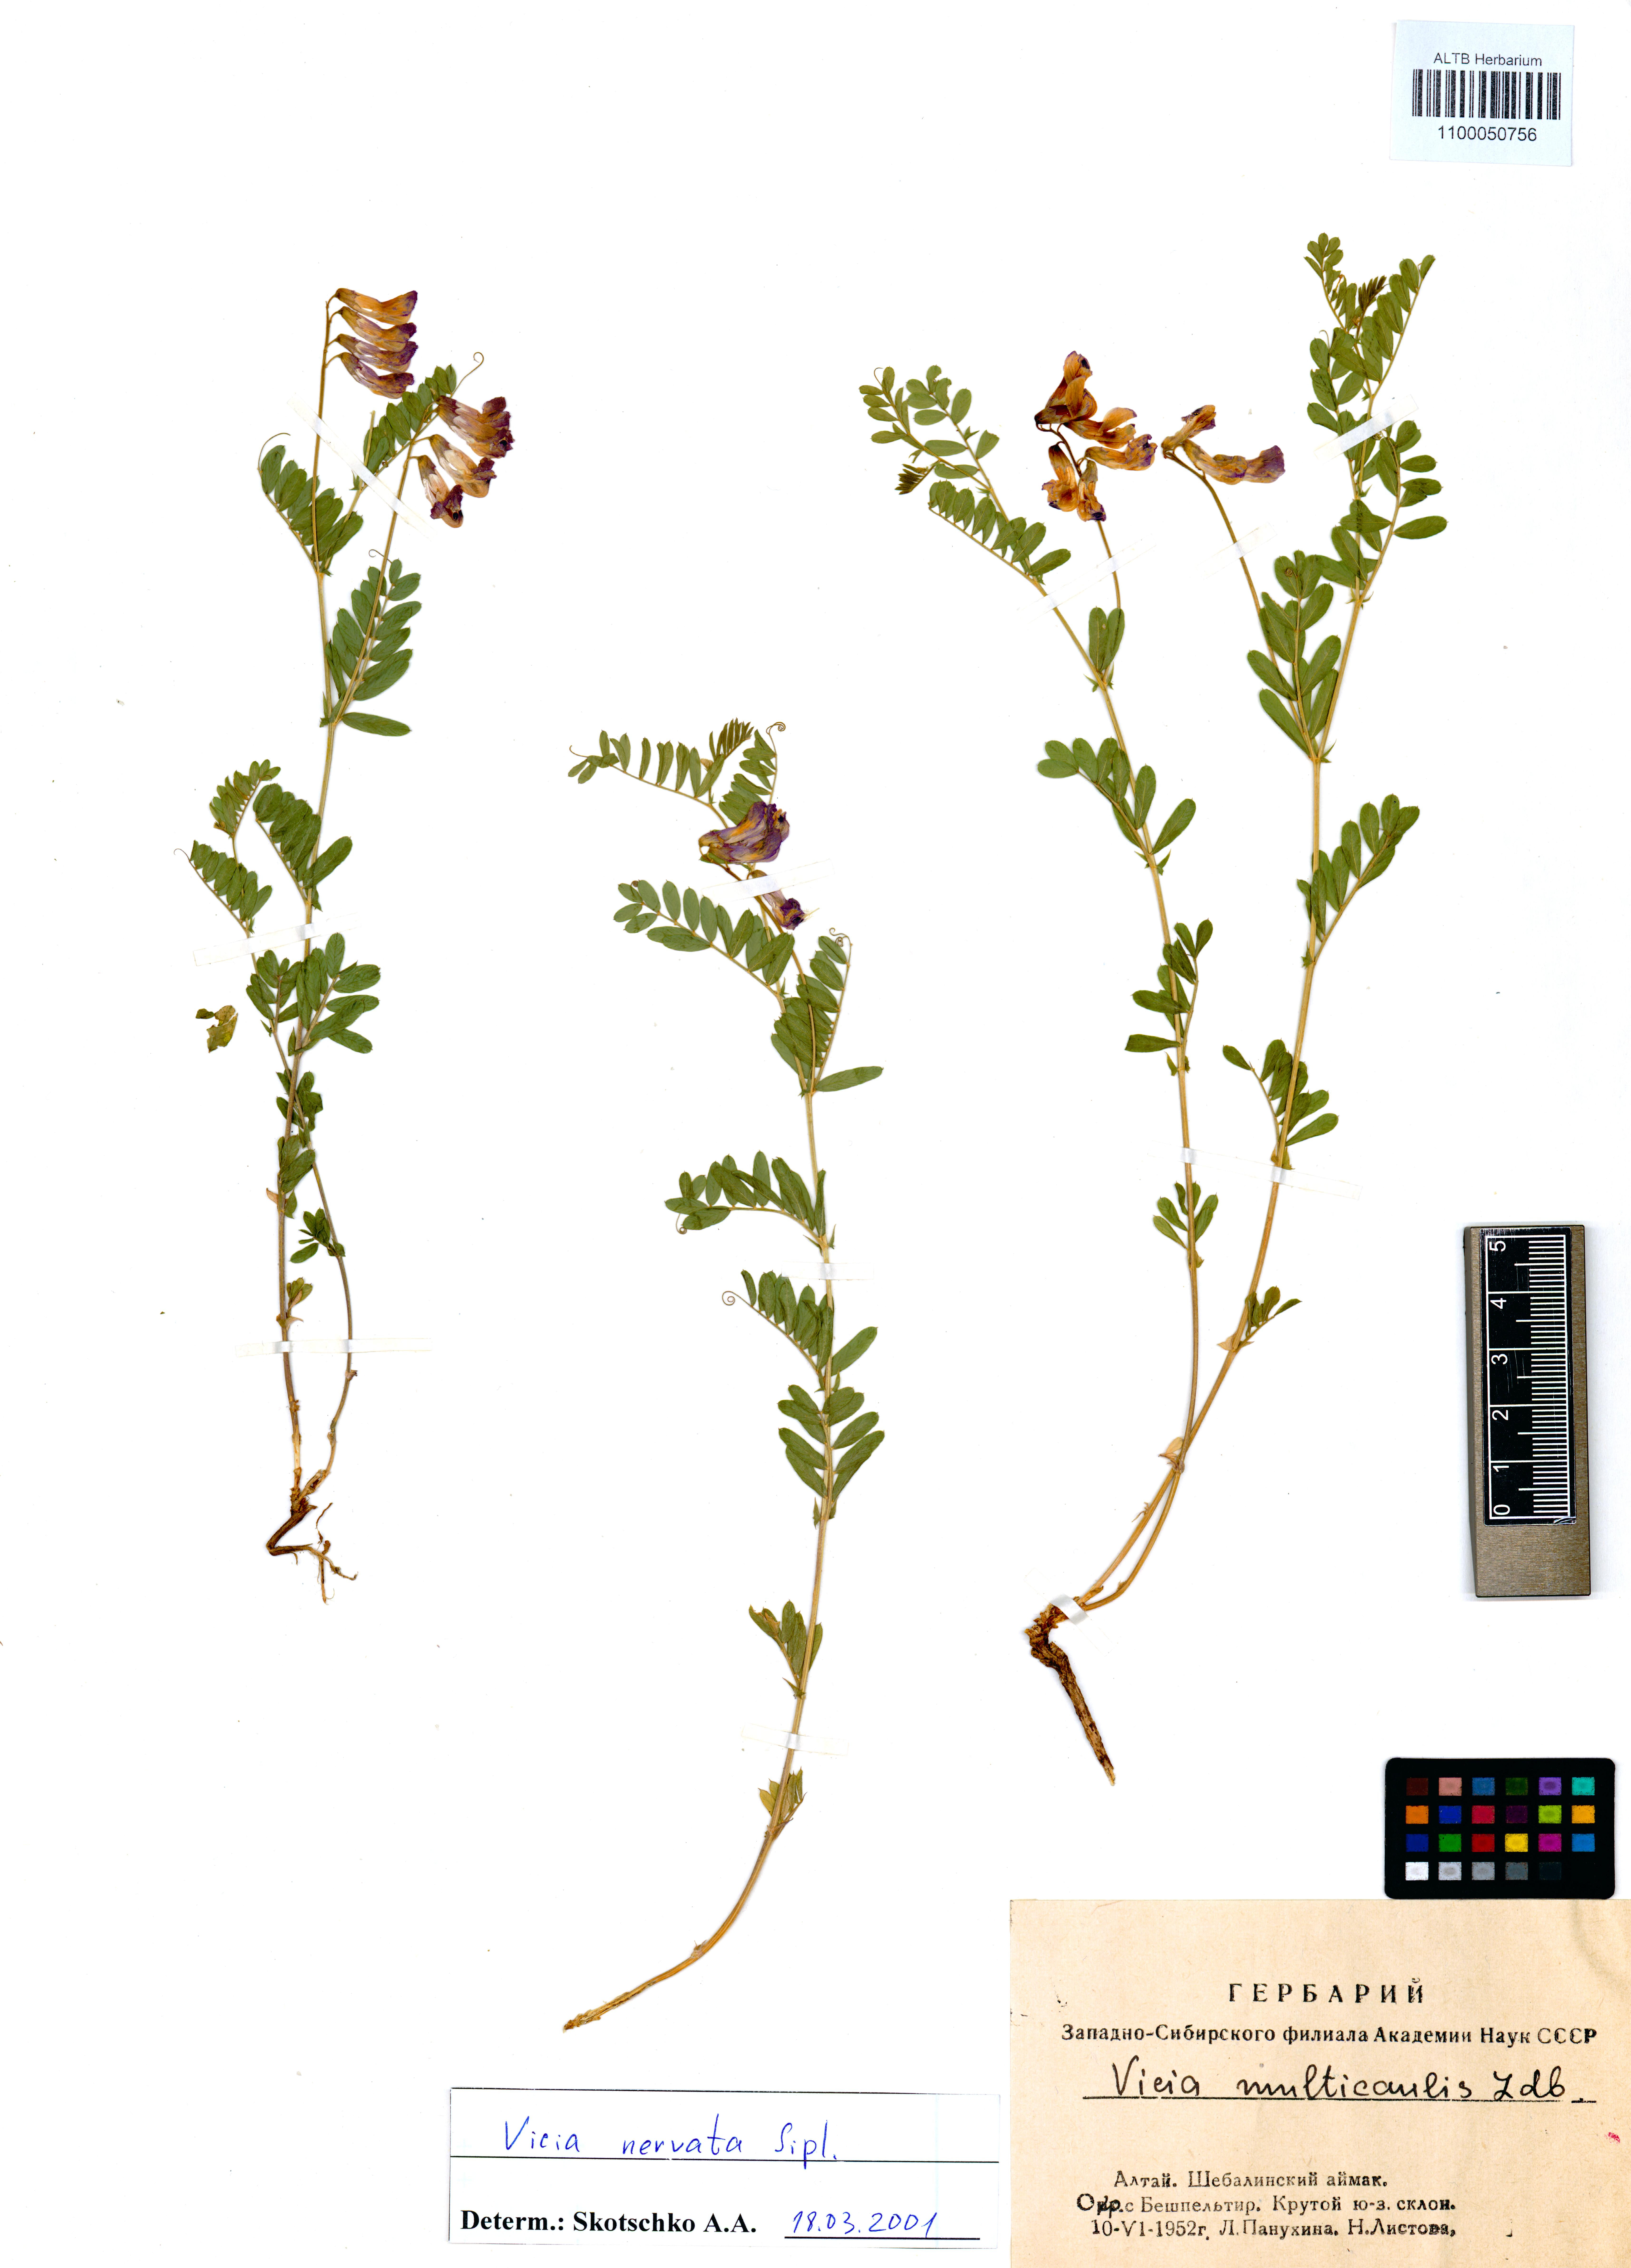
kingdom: Plantae
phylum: Tracheophyta
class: Magnoliopsida
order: Fabales
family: Fabaceae
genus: Vicia
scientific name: Vicia multicaulis
